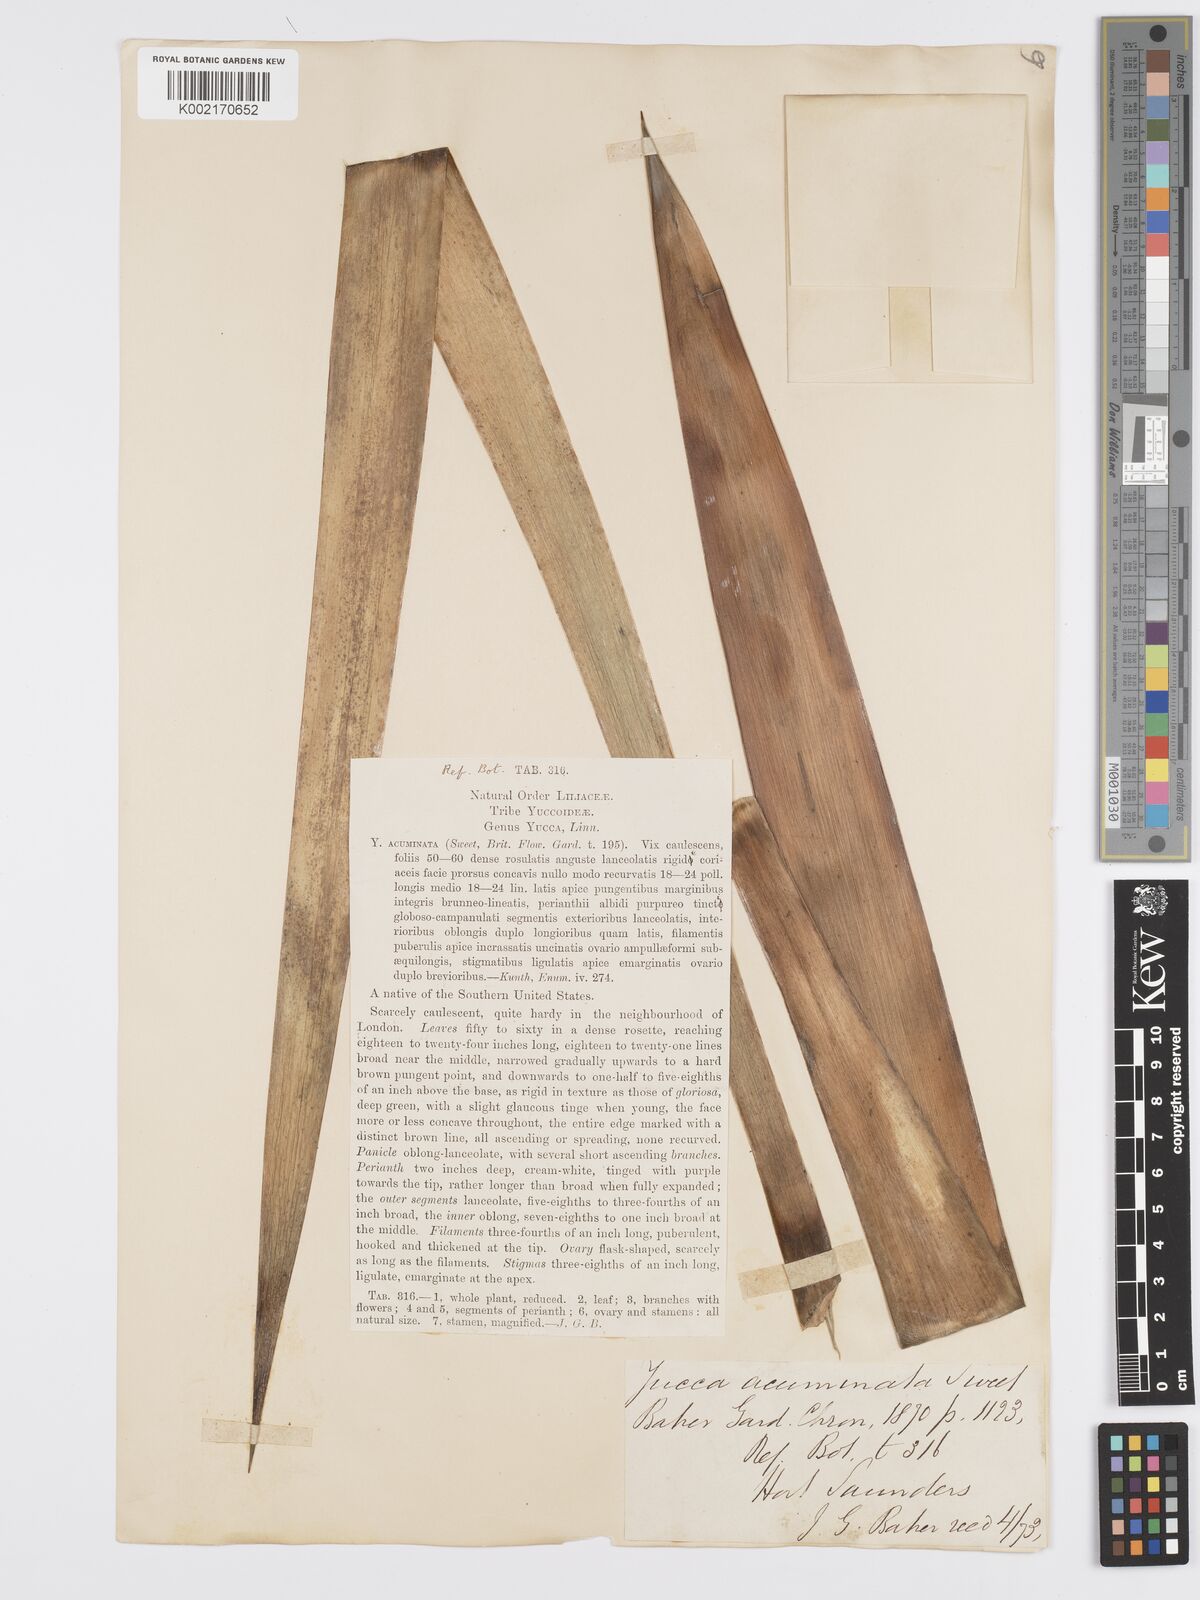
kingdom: Plantae
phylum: Tracheophyta
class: Liliopsida
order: Asparagales
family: Asparagaceae
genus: Yucca
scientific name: Yucca gloriosa
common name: Spanish-dagger
